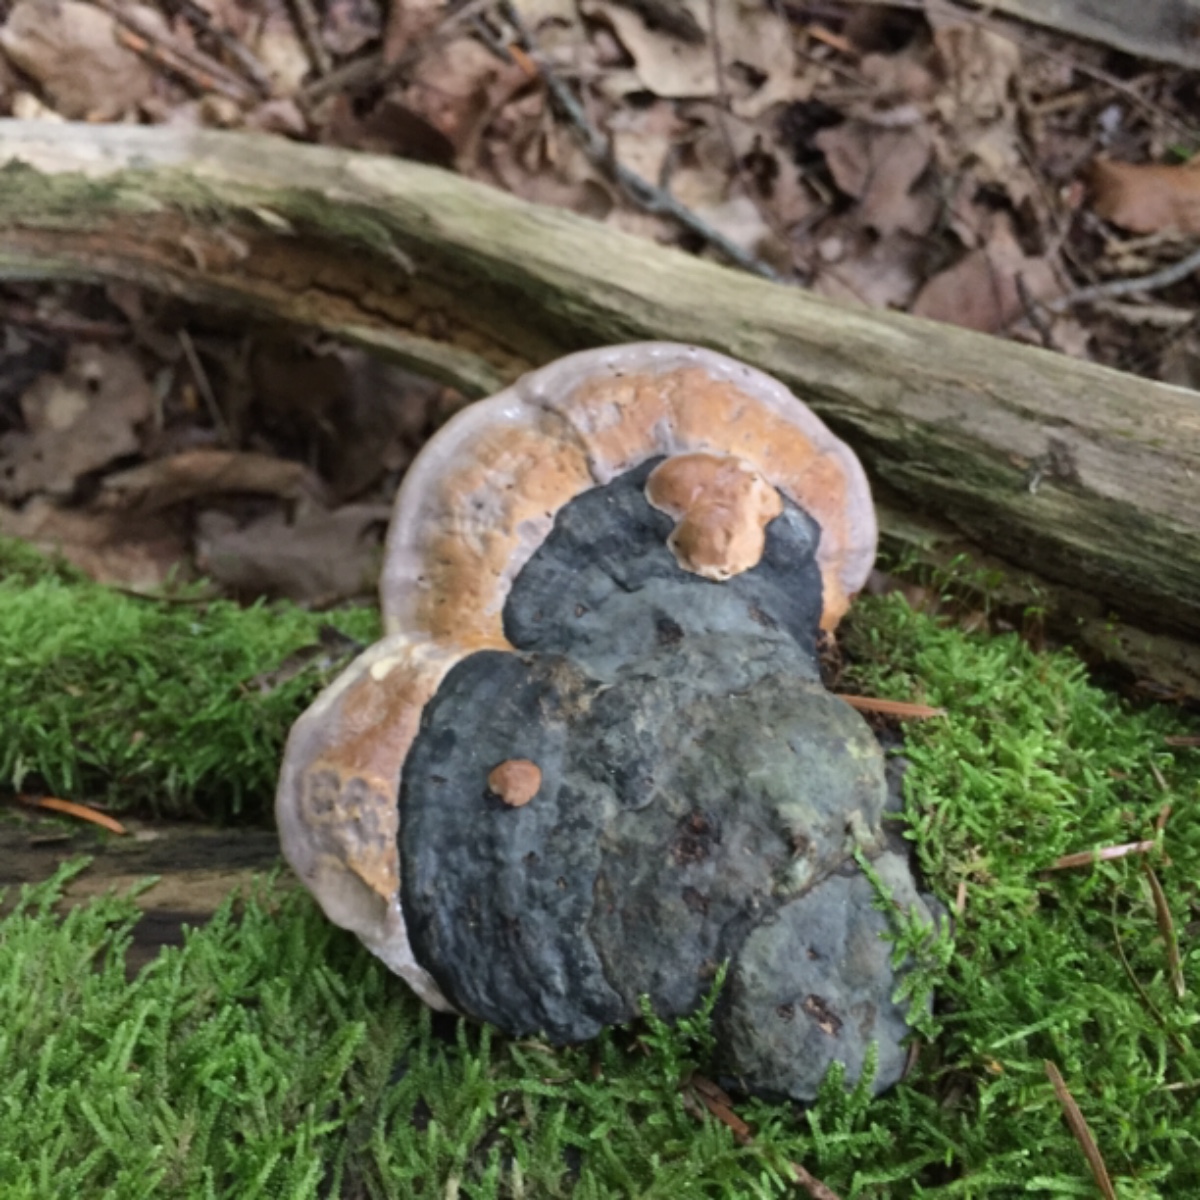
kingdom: Fungi
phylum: Basidiomycota
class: Agaricomycetes
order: Polyporales
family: Fomitopsidaceae
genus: Fomitopsis
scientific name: Fomitopsis pinicola
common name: randbæltet hovporesvamp
